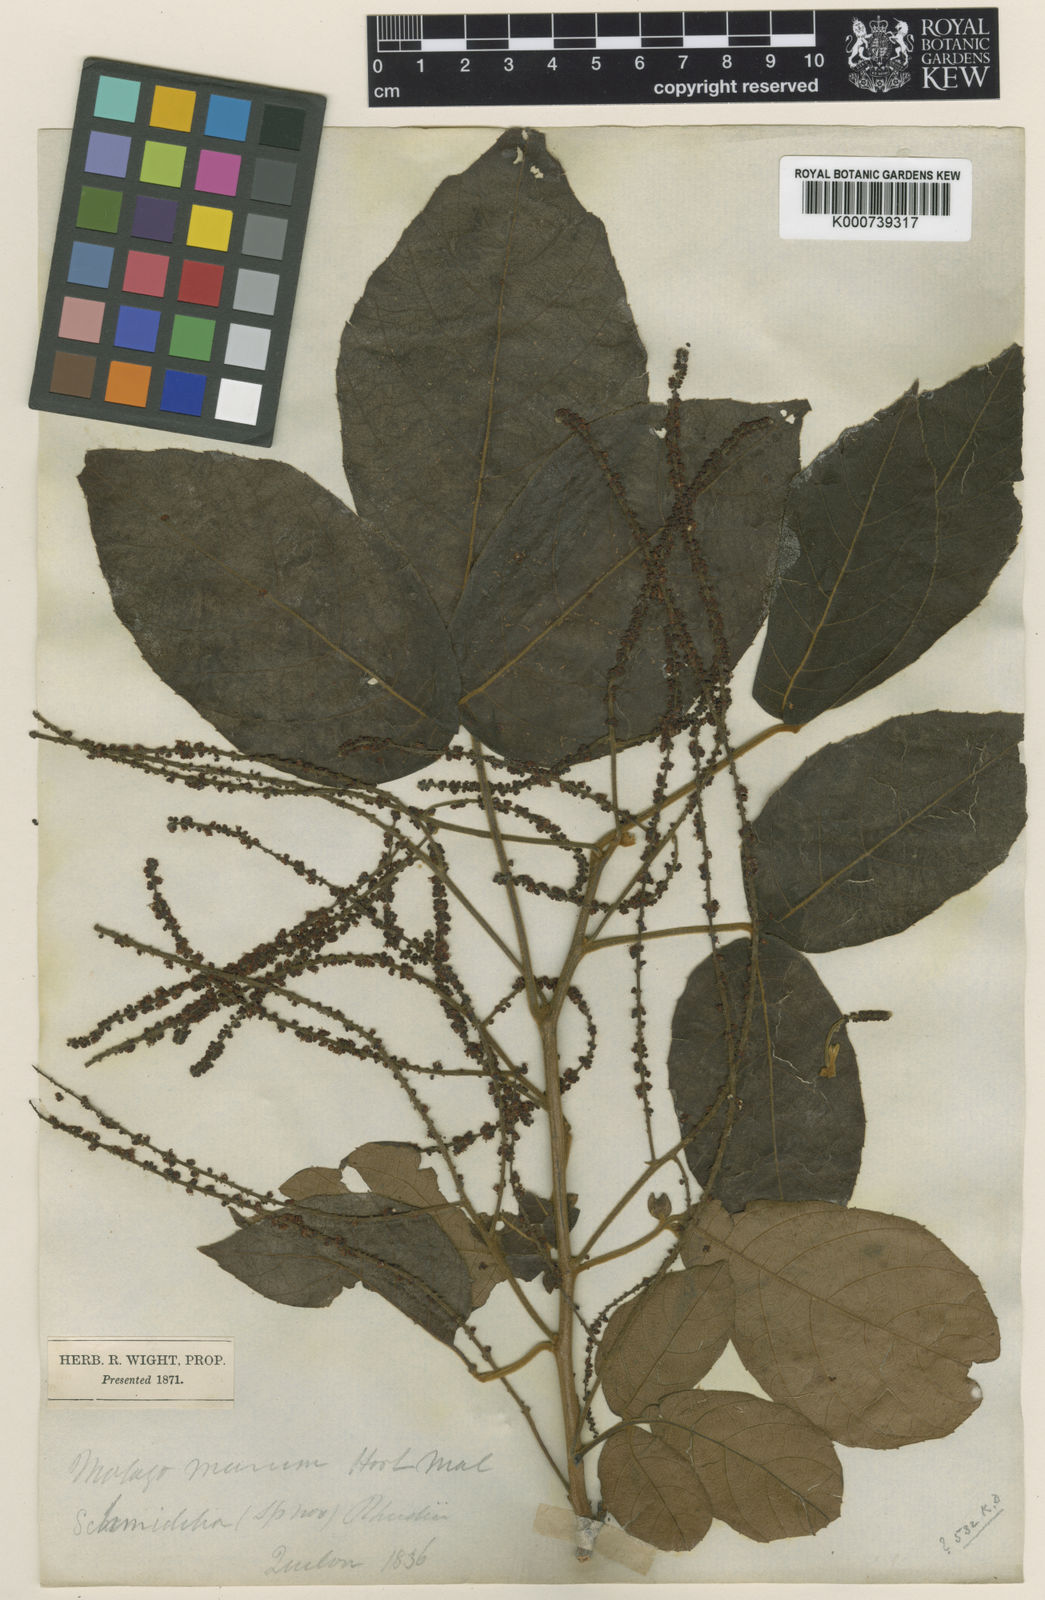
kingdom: Plantae
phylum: Tracheophyta
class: Magnoliopsida
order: Sapindales
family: Sapindaceae
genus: Allophylus
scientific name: Allophylus rheedei
